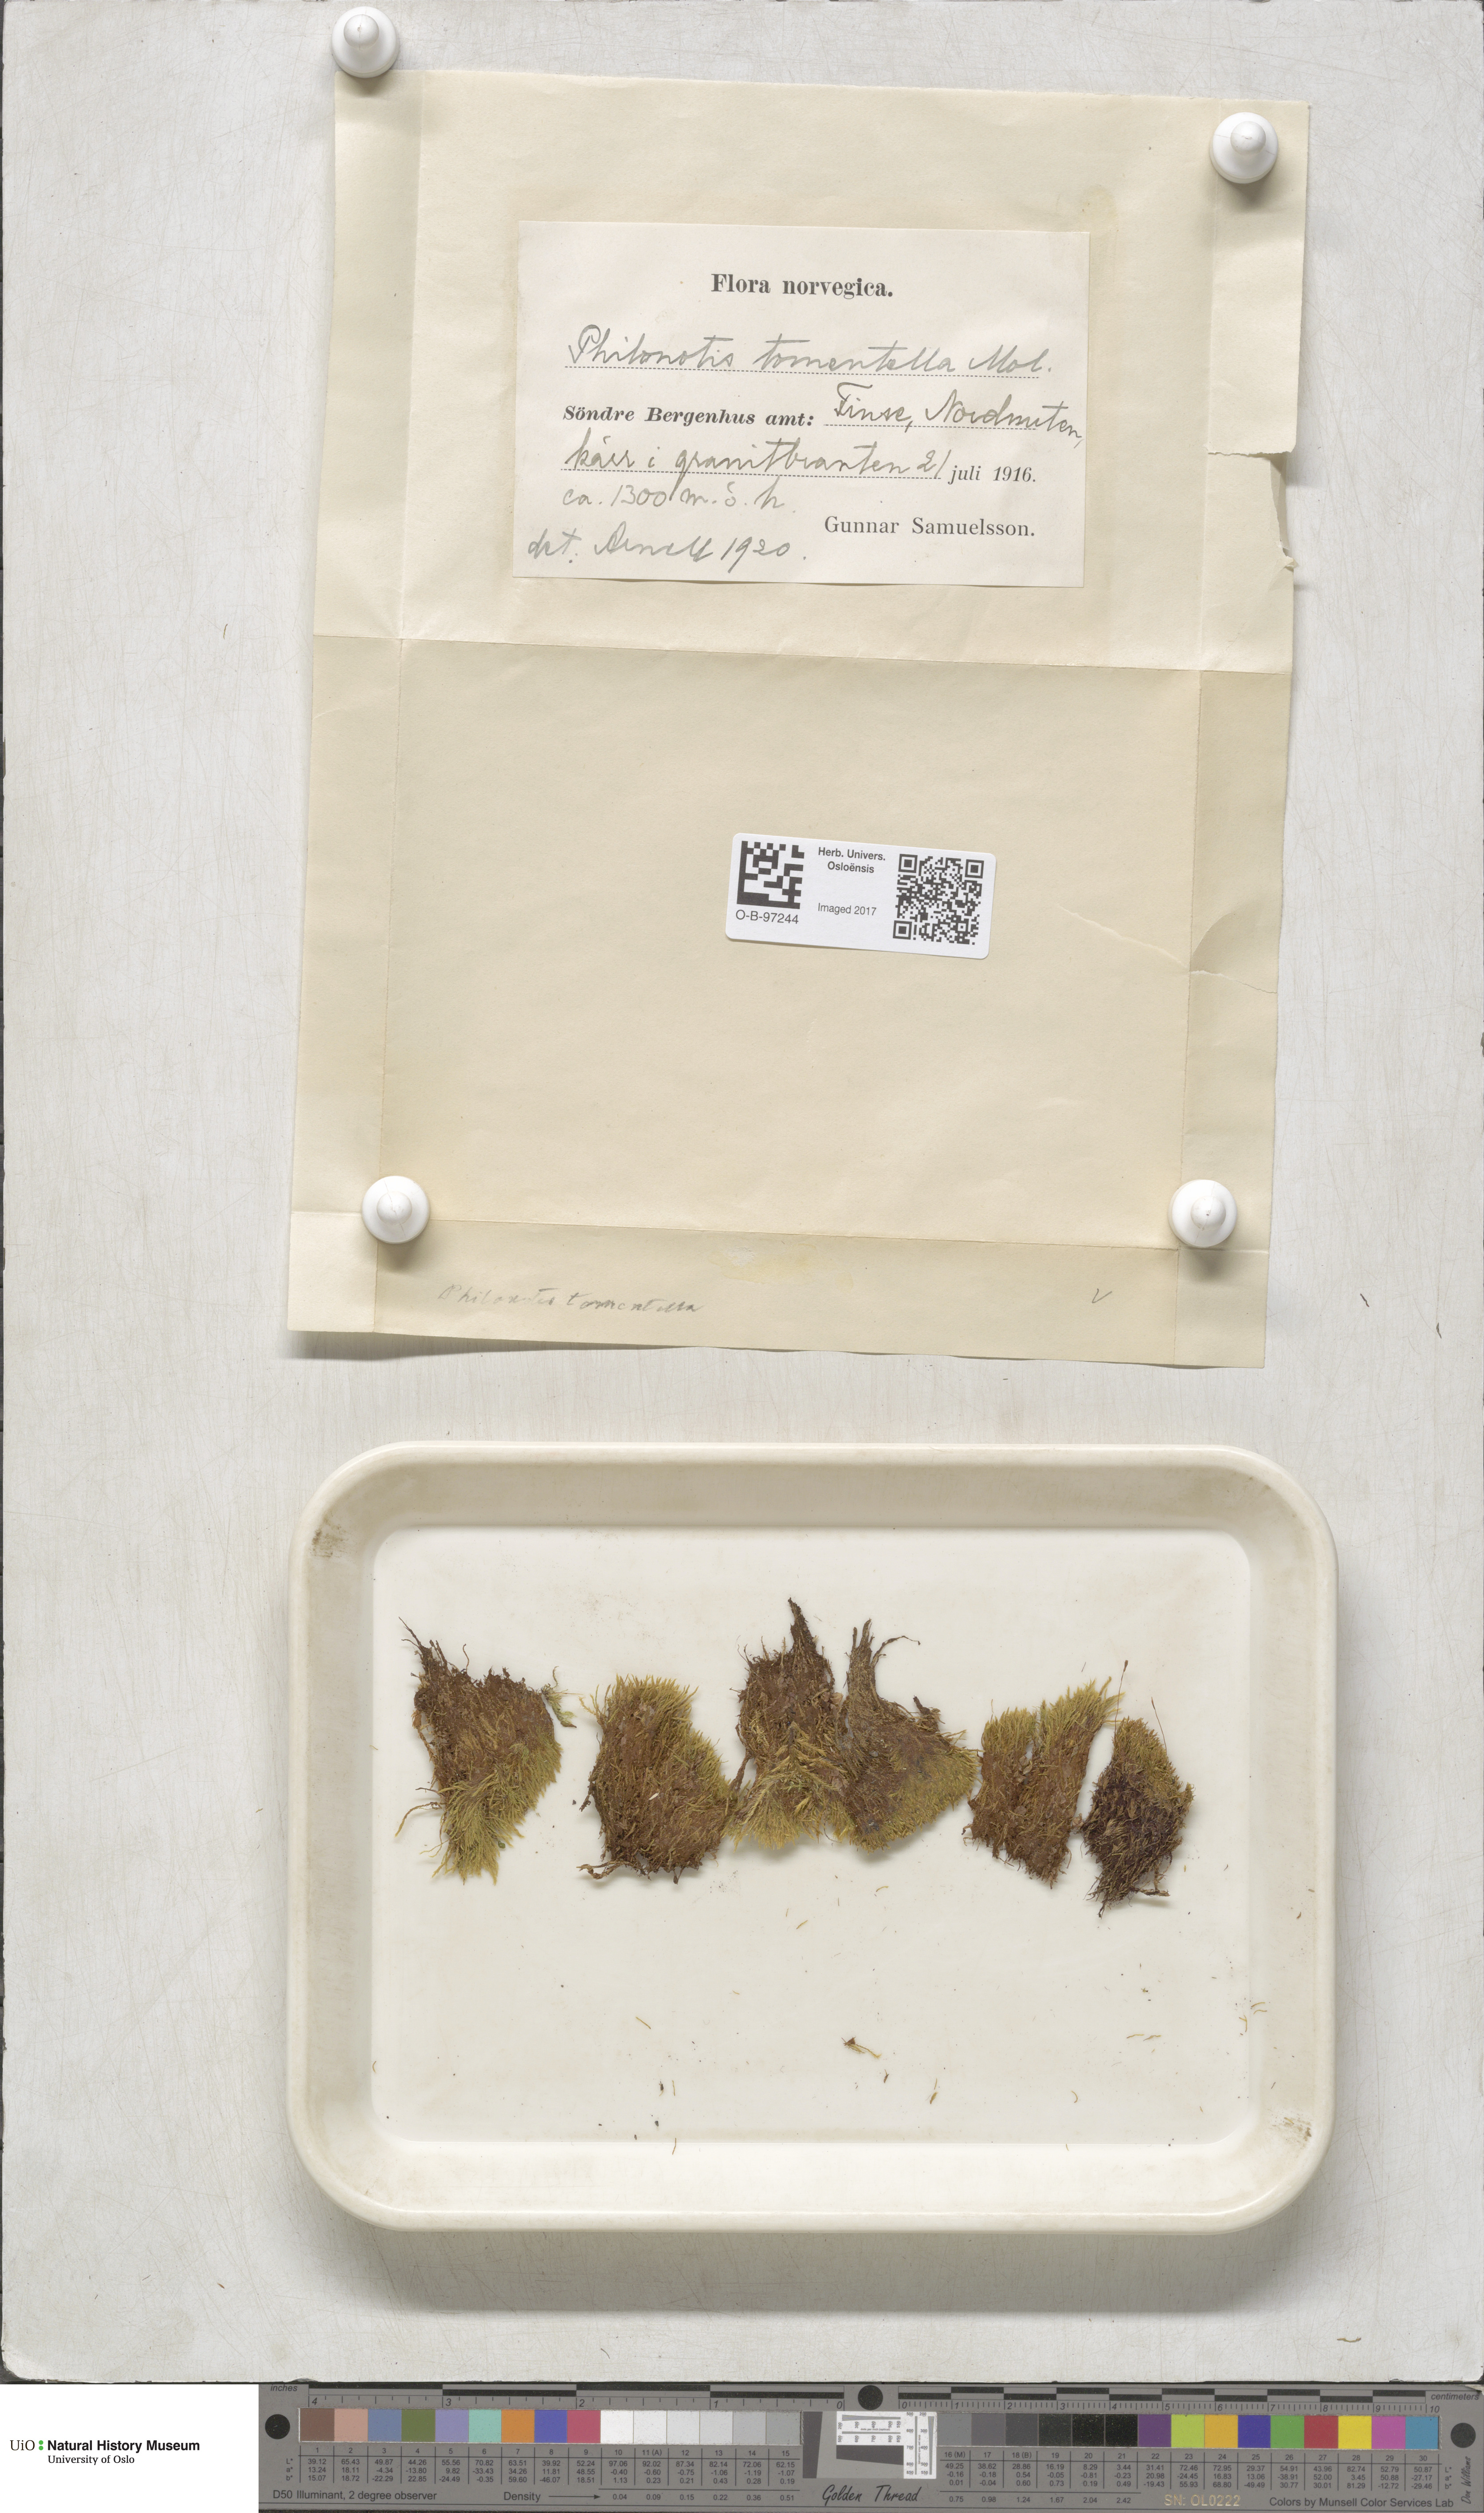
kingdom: Plantae
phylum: Bryophyta
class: Bryopsida
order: Bartramiales
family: Bartramiaceae
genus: Philonotis
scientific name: Philonotis tomentella
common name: Woolly apple moss
